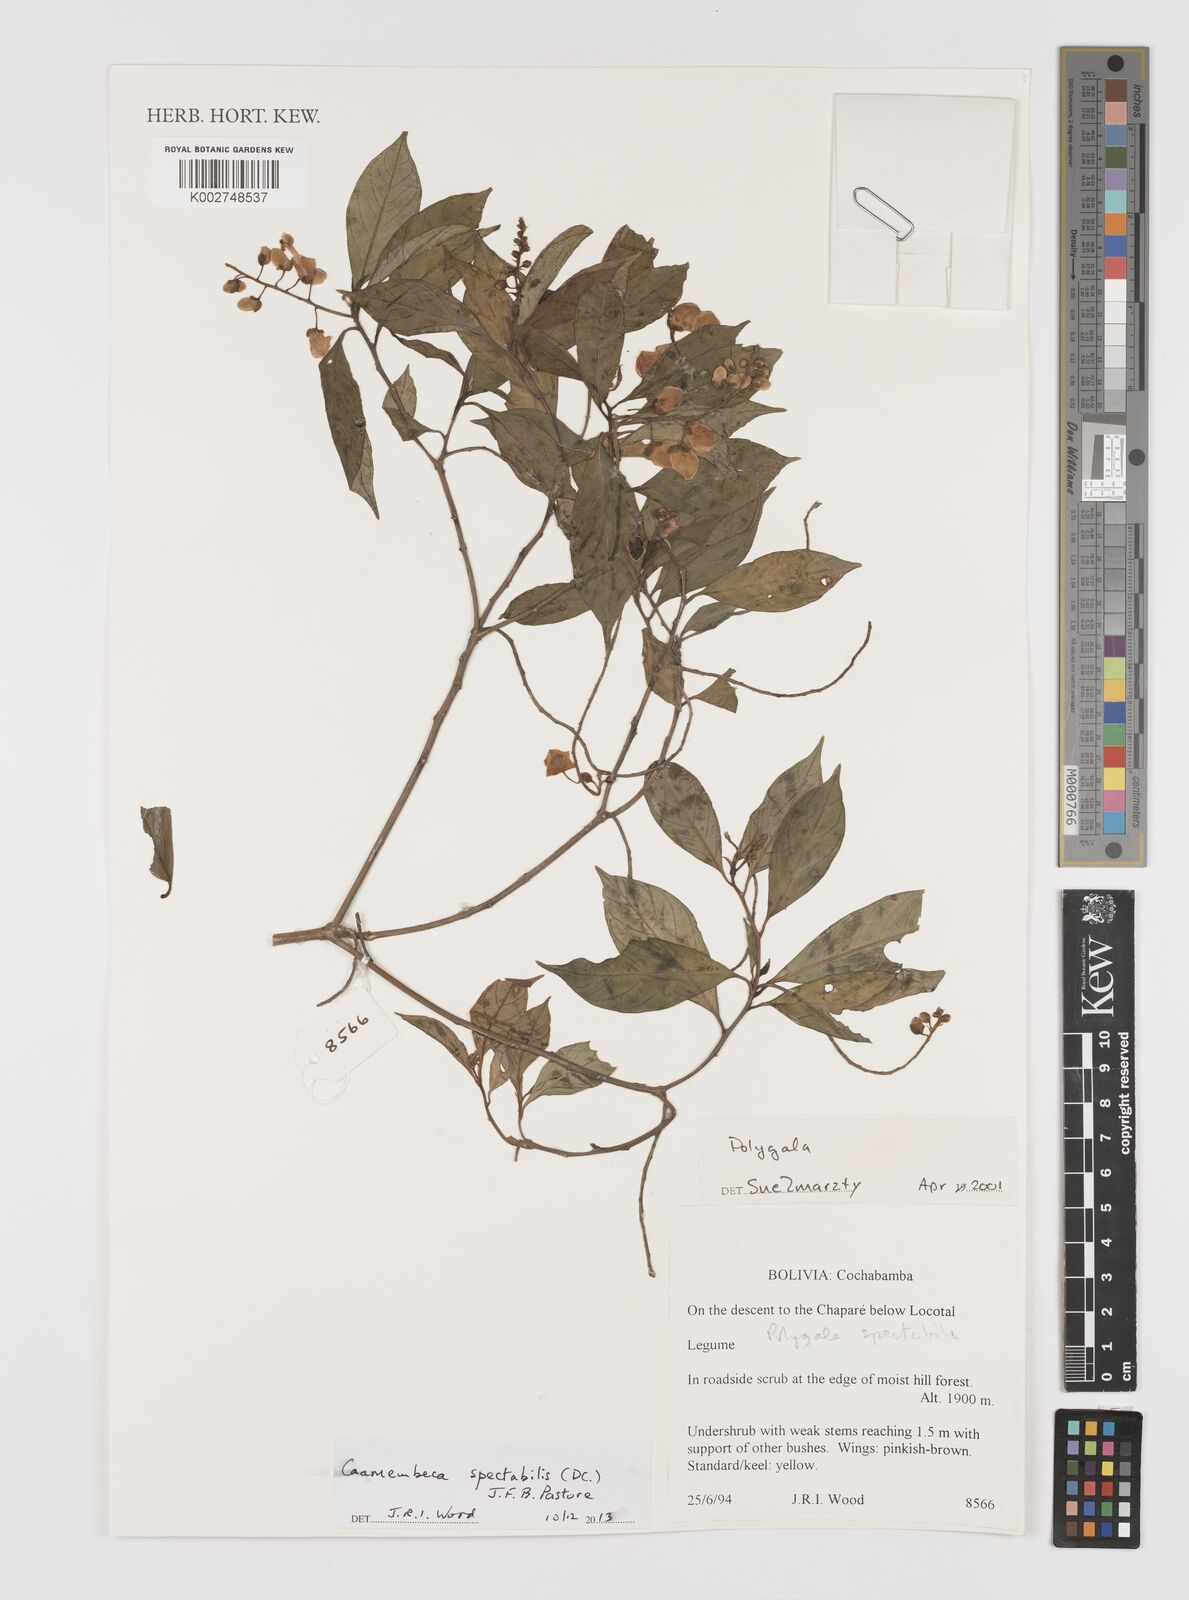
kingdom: Plantae
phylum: Tracheophyta
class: Magnoliopsida
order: Fabales
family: Polygalaceae
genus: Caamembeca
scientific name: Caamembeca spectabilis
